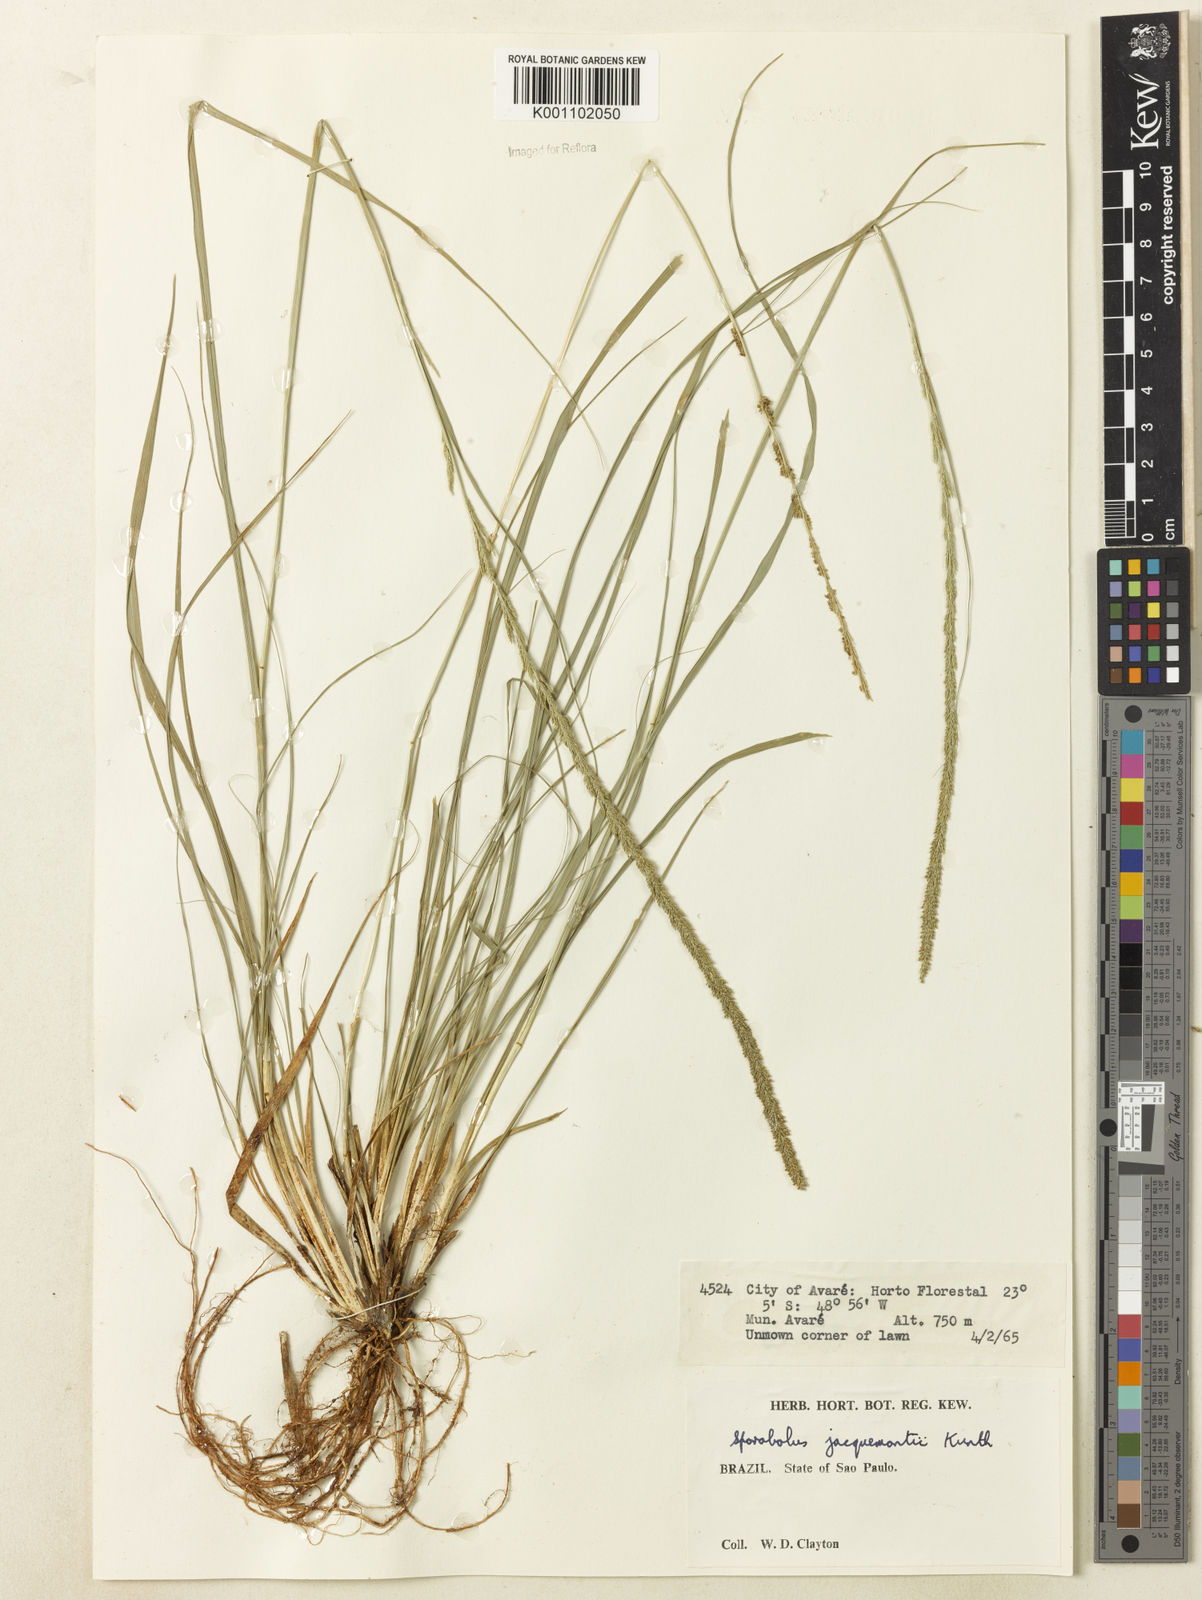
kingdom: Plantae
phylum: Tracheophyta
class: Liliopsida
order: Poales
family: Poaceae
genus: Sporobolus
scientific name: Sporobolus pyramidalis
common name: West indian dropseed
